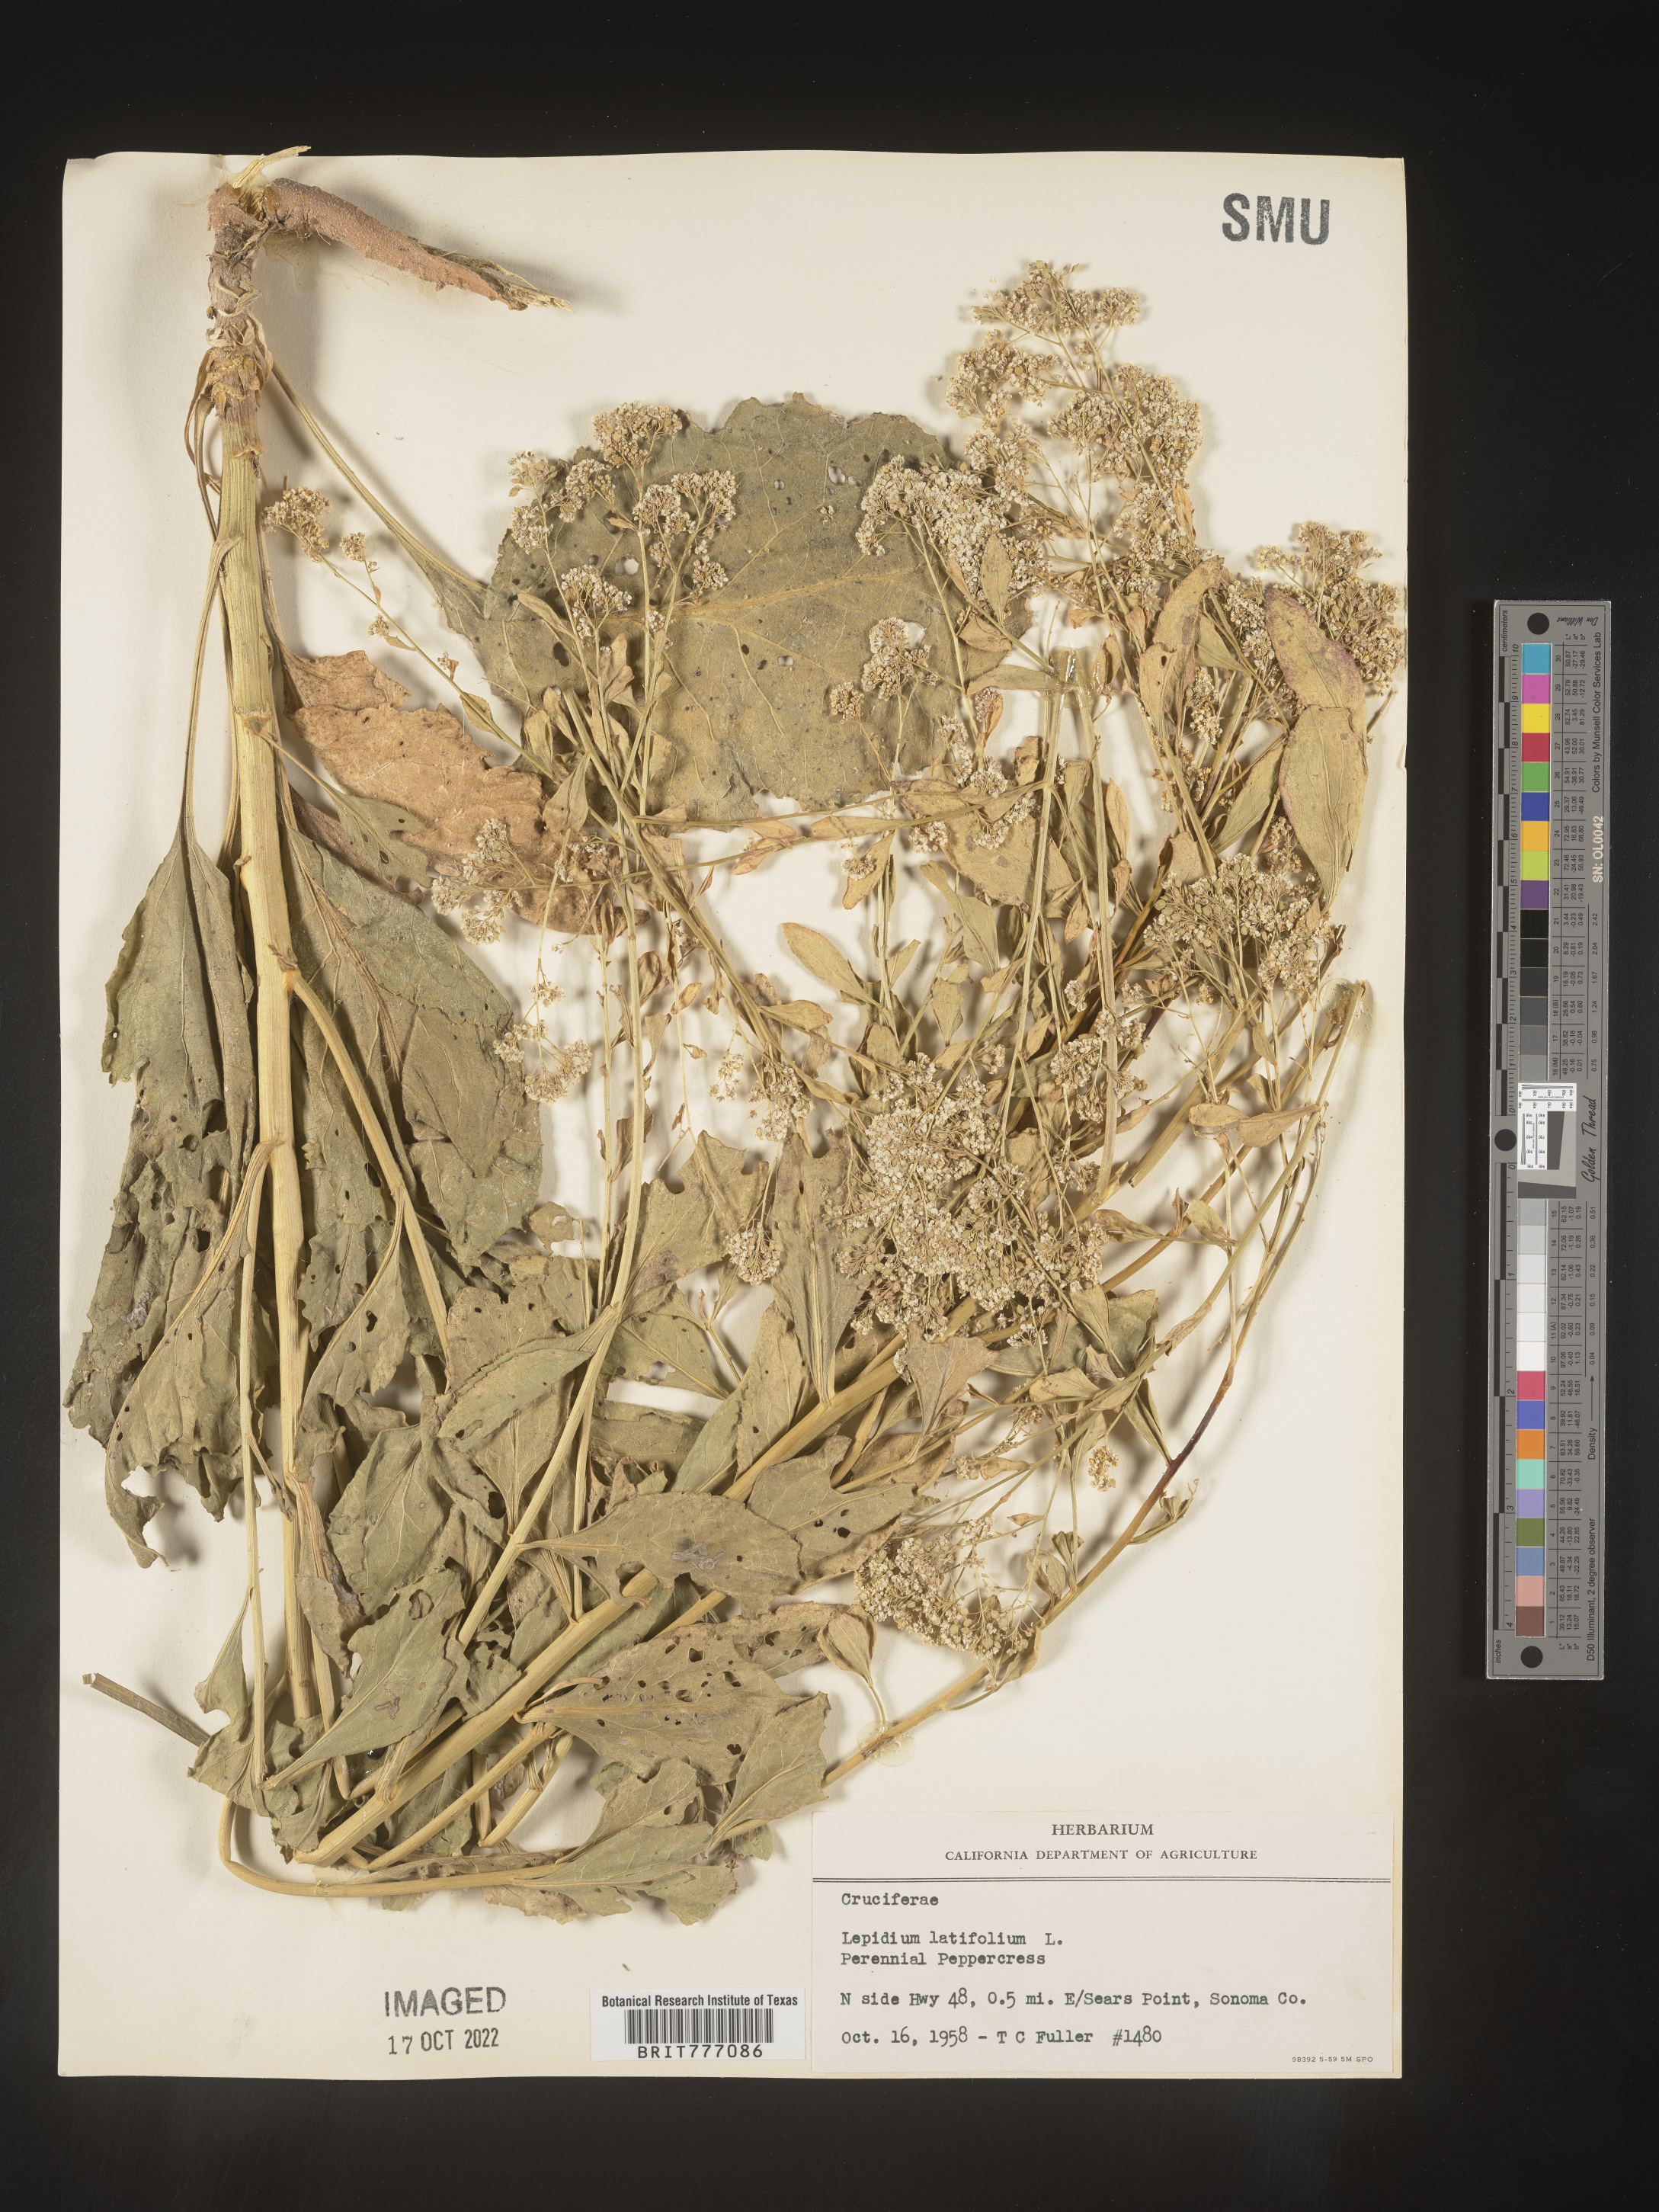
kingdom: Plantae
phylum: Tracheophyta
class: Magnoliopsida
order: Brassicales
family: Brassicaceae
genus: Lepidium
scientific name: Lepidium
